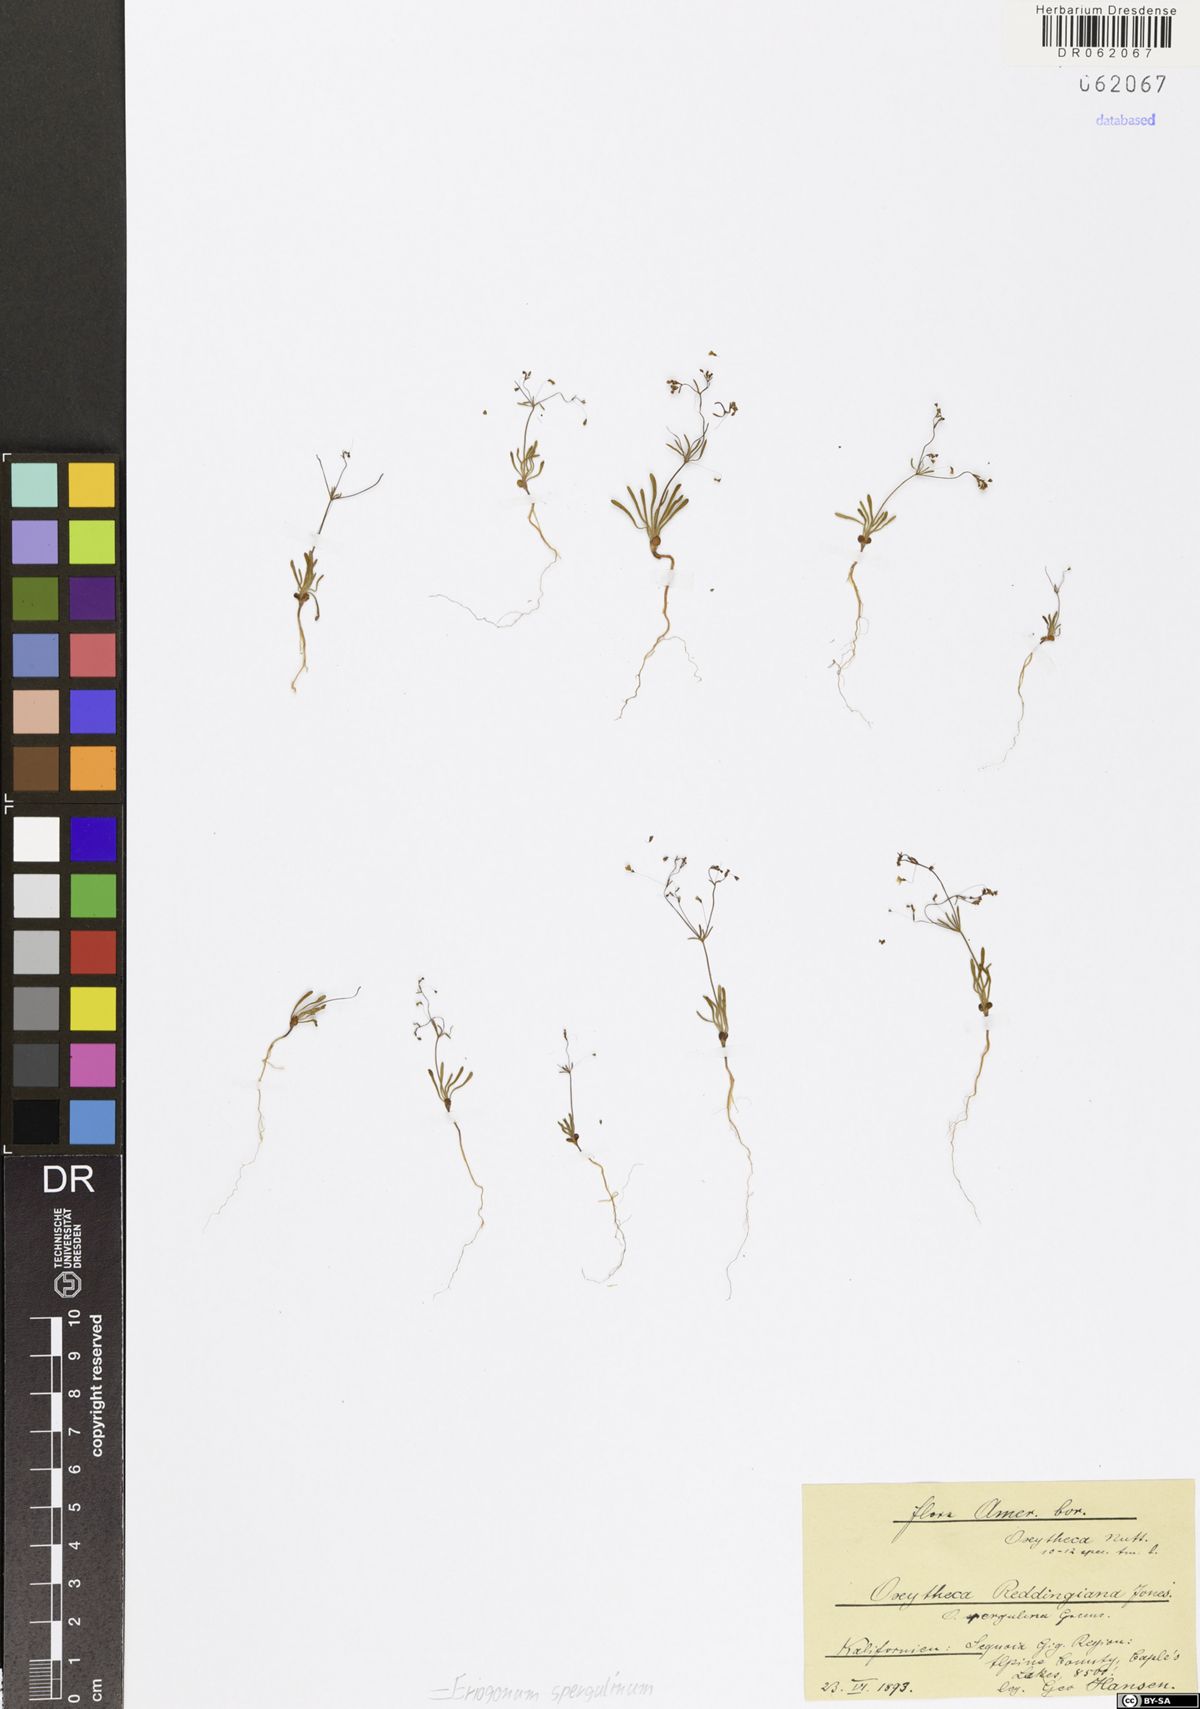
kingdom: Plantae
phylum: Tracheophyta
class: Magnoliopsida
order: Caryophyllales
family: Polygonaceae
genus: Eriogonum
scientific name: Eriogonum spergulinum
